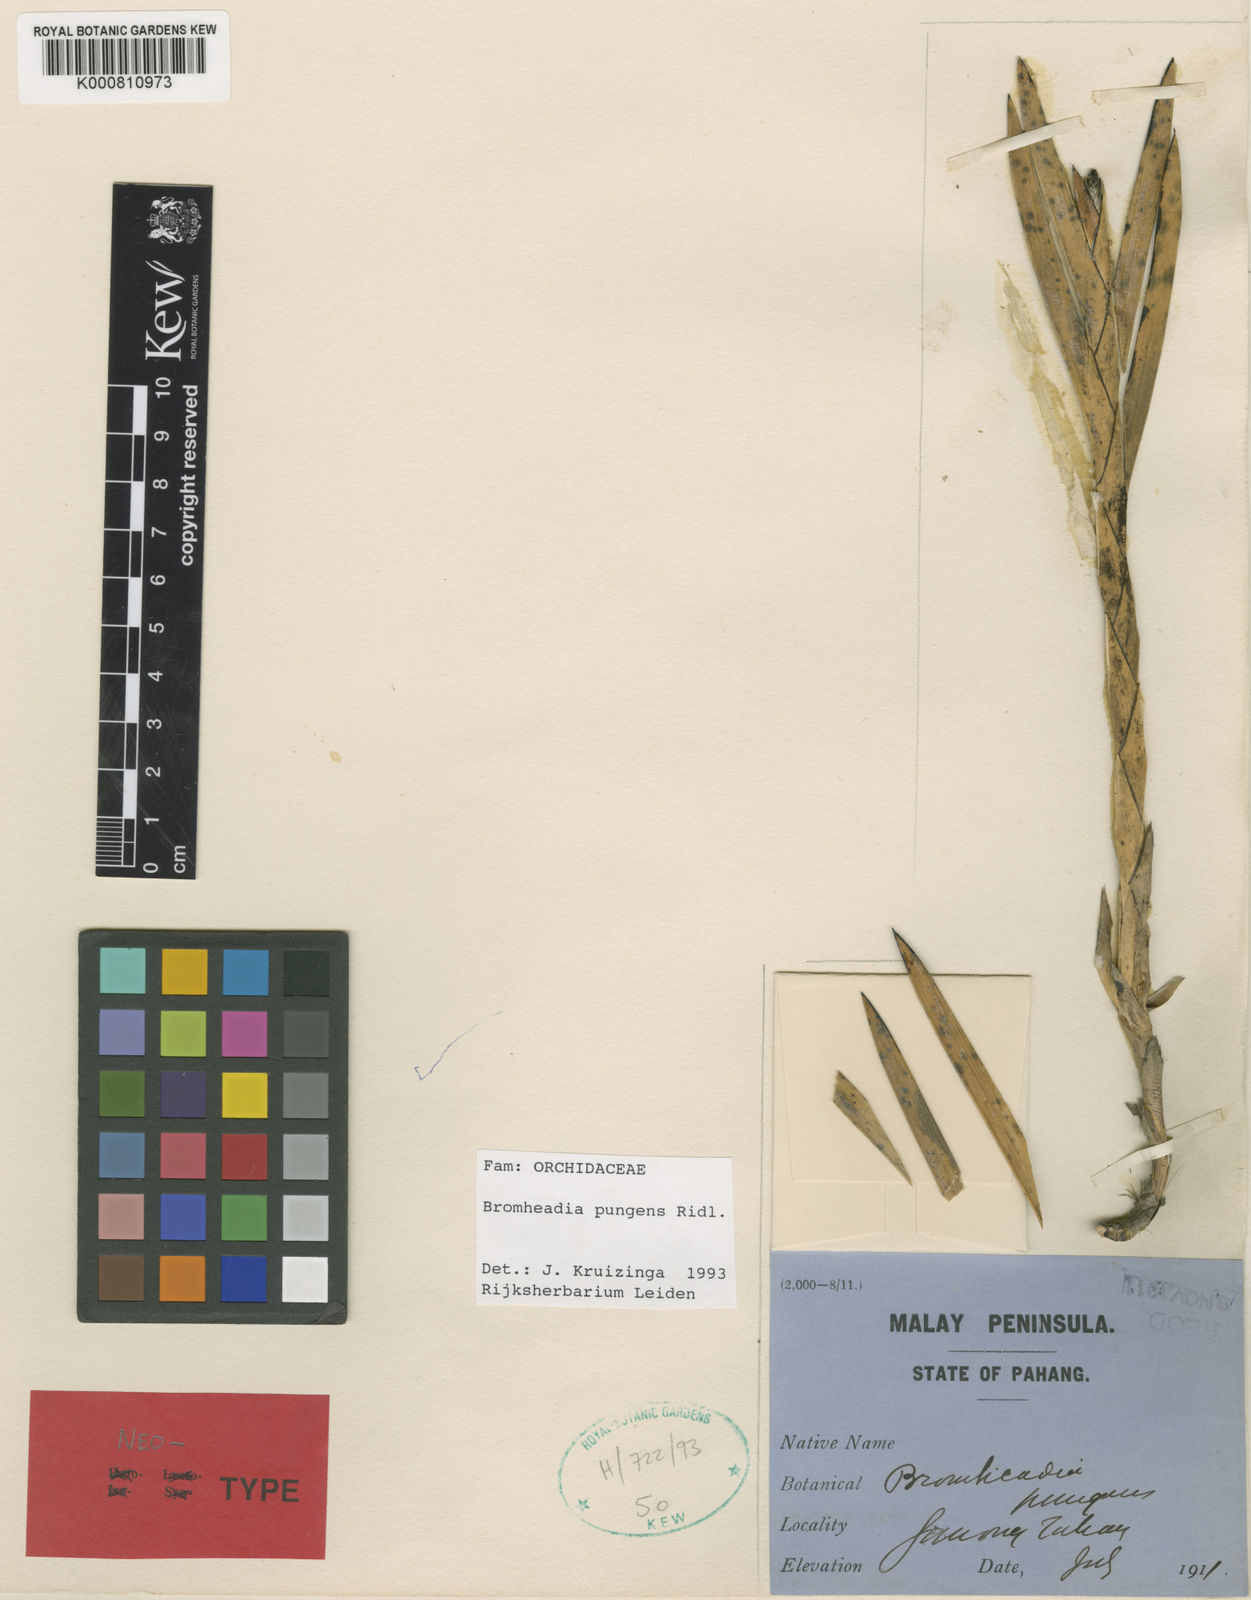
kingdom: Plantae
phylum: Tracheophyta
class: Liliopsida
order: Asparagales
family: Orchidaceae
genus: Bromheadia
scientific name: Bromheadia pungens
